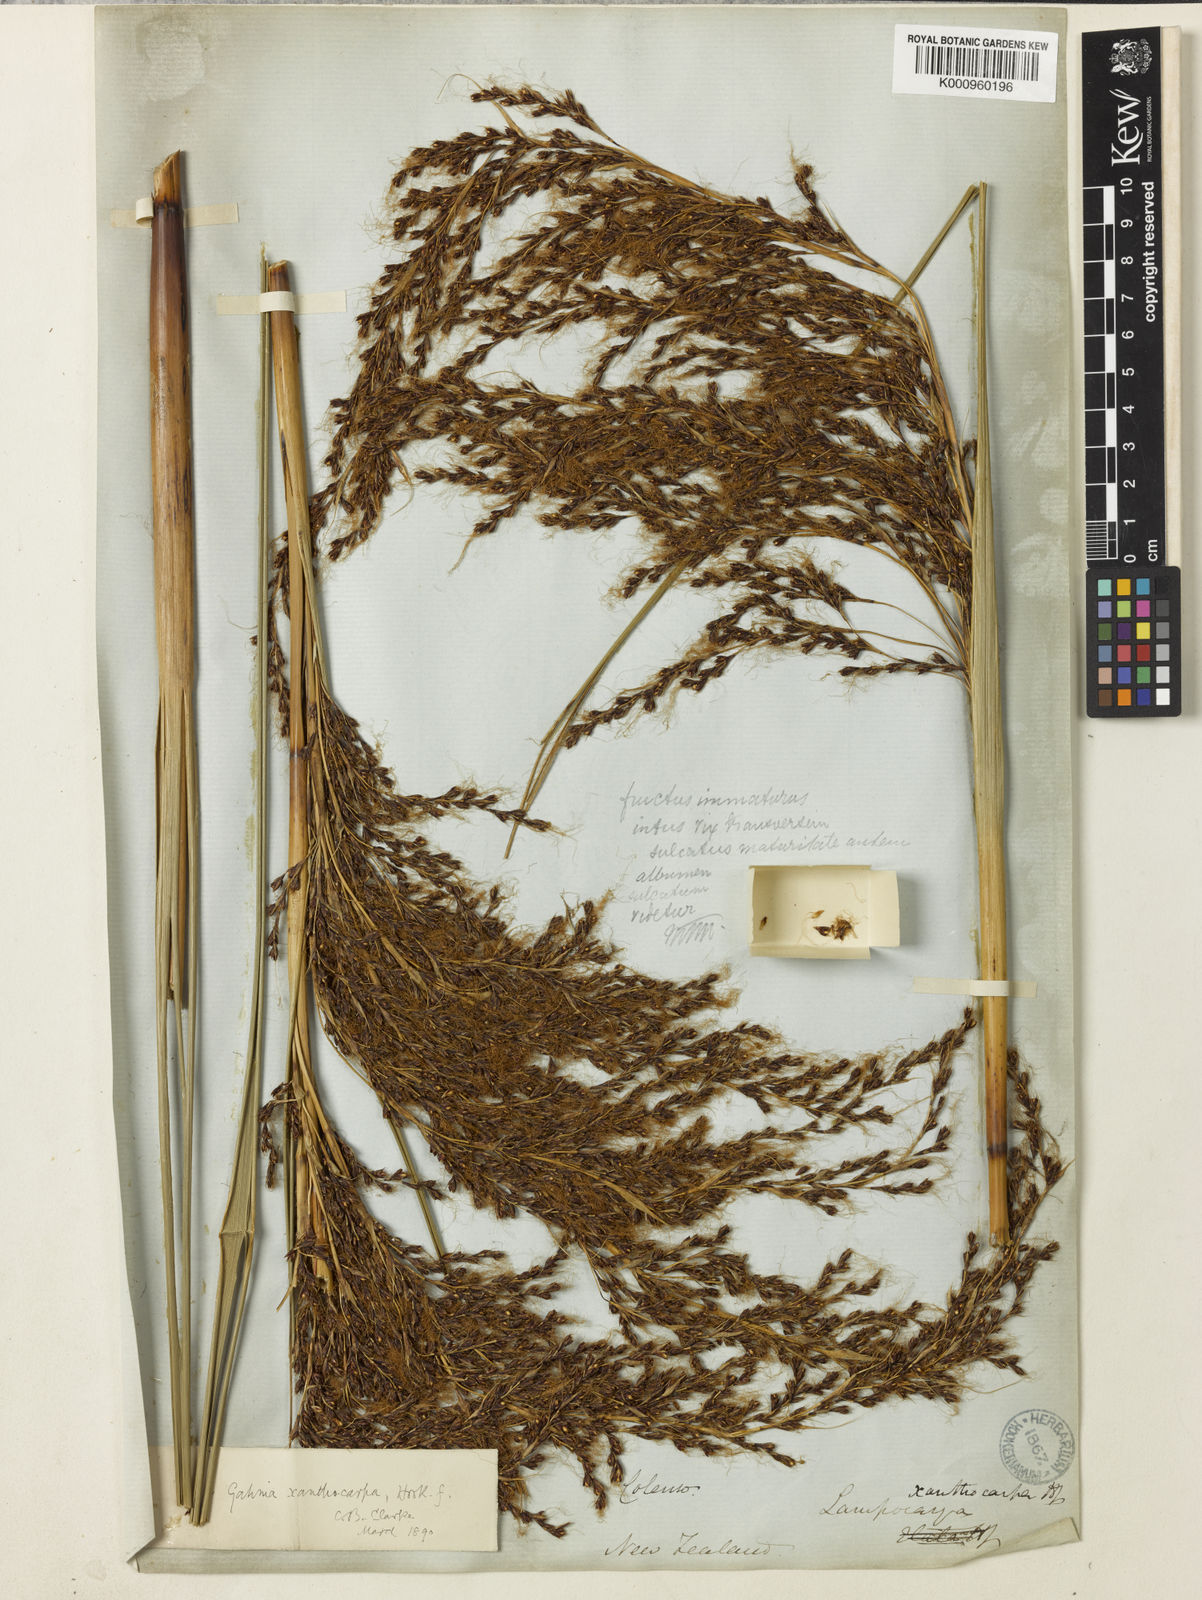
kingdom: Plantae
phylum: Tracheophyta
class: Liliopsida
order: Poales
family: Cyperaceae
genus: Gahnia
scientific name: Gahnia xanthocarpa
